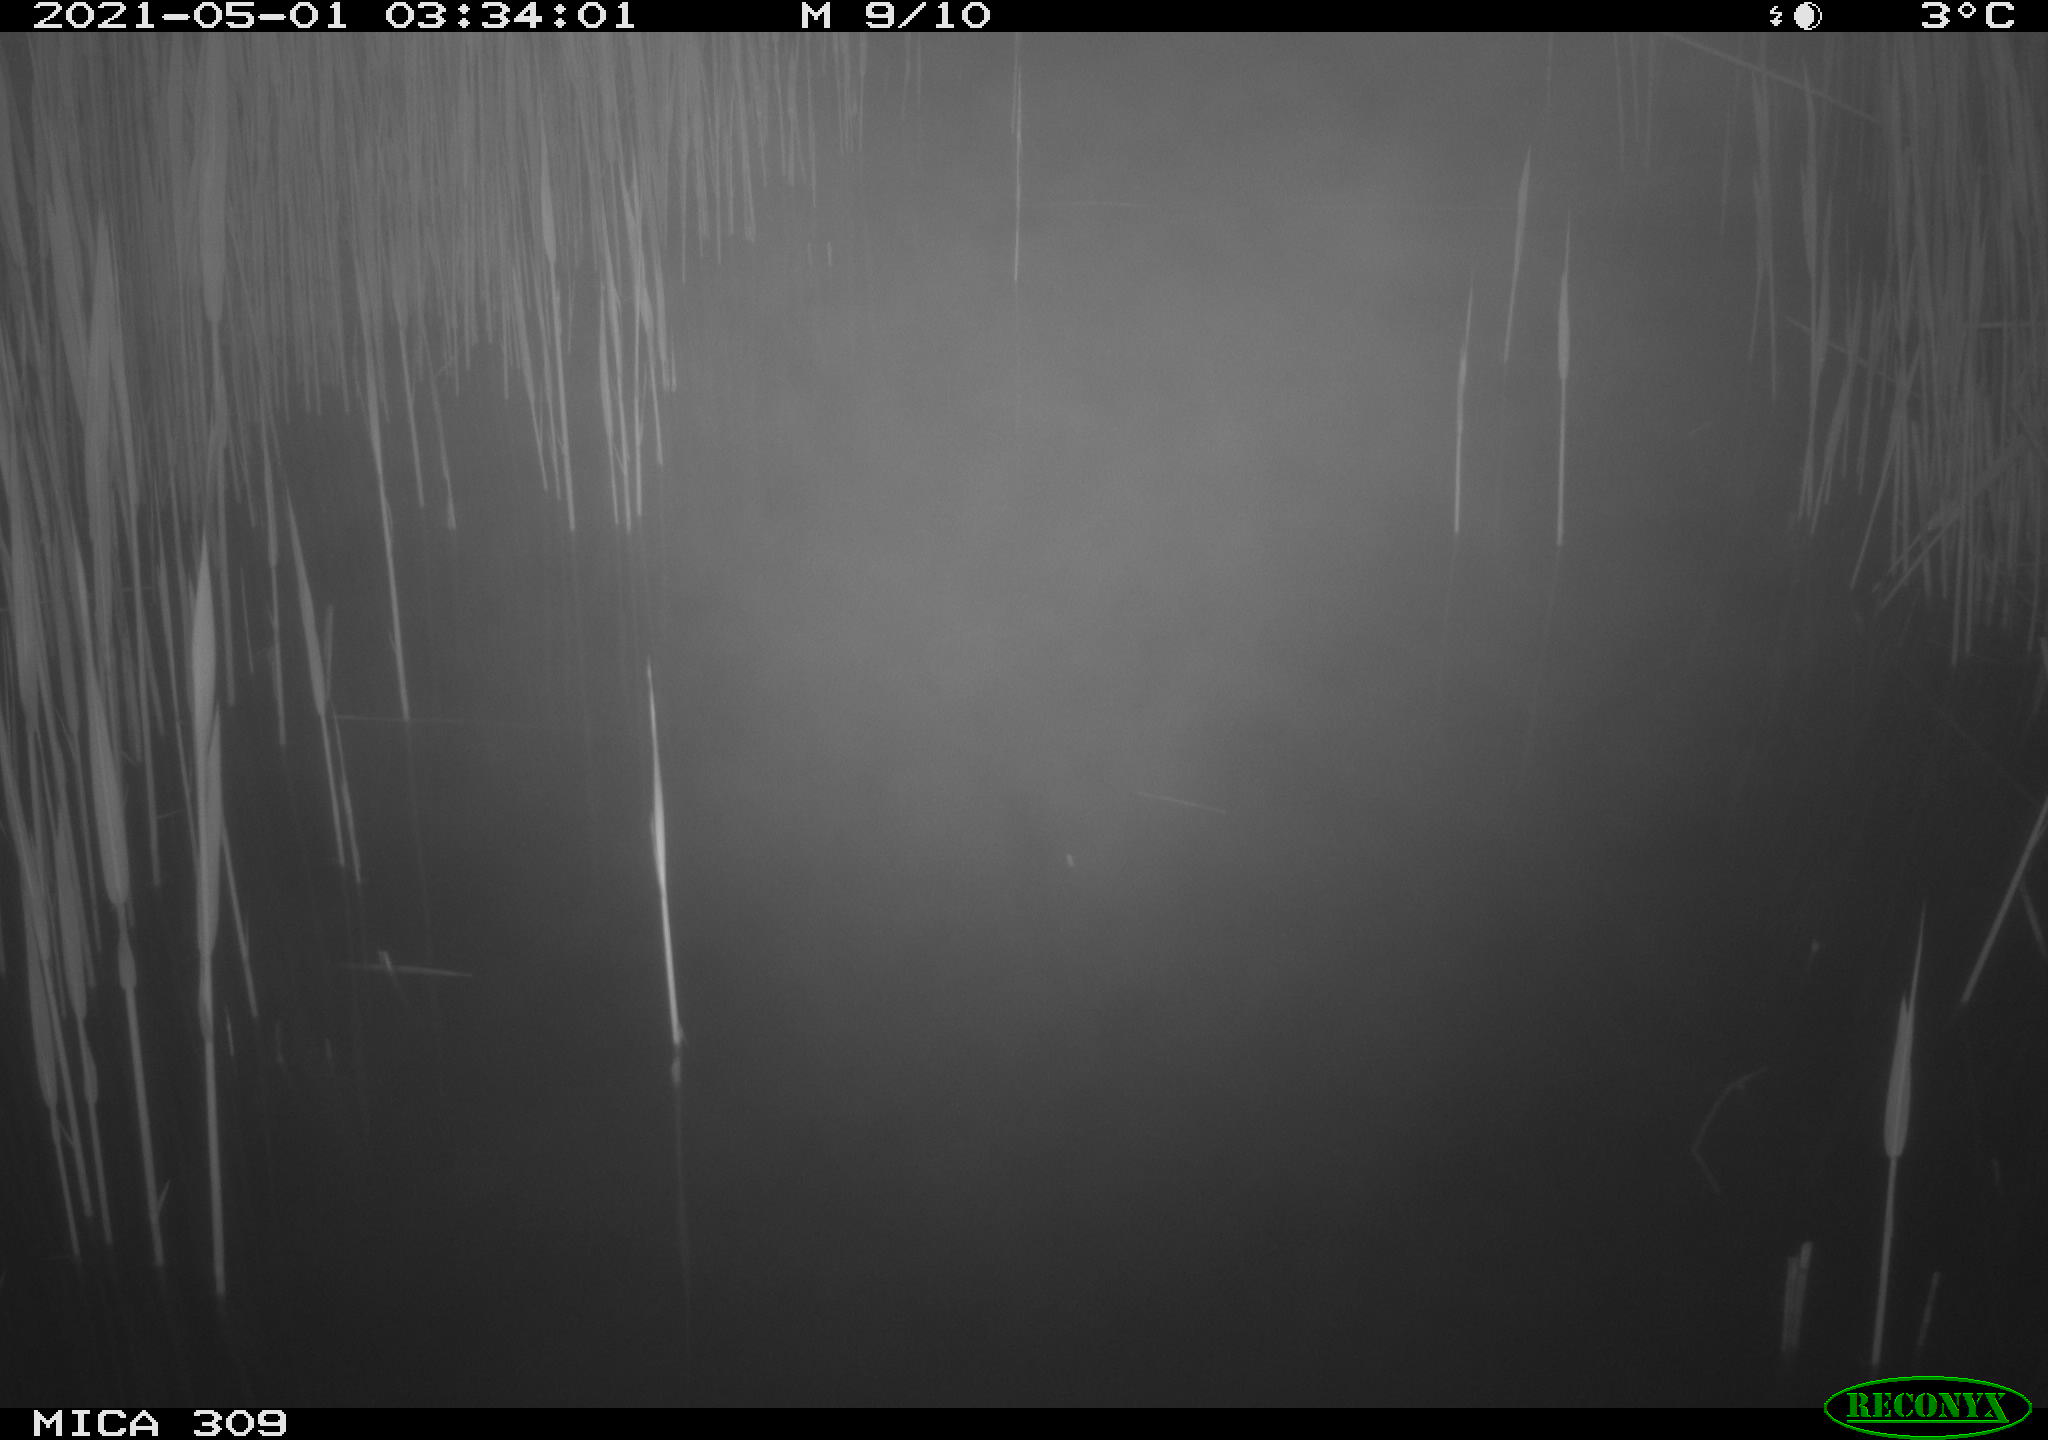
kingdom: Animalia
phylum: Chordata
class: Aves
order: Anseriformes
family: Anatidae
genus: Anas
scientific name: Anas platyrhynchos
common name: Mallard
